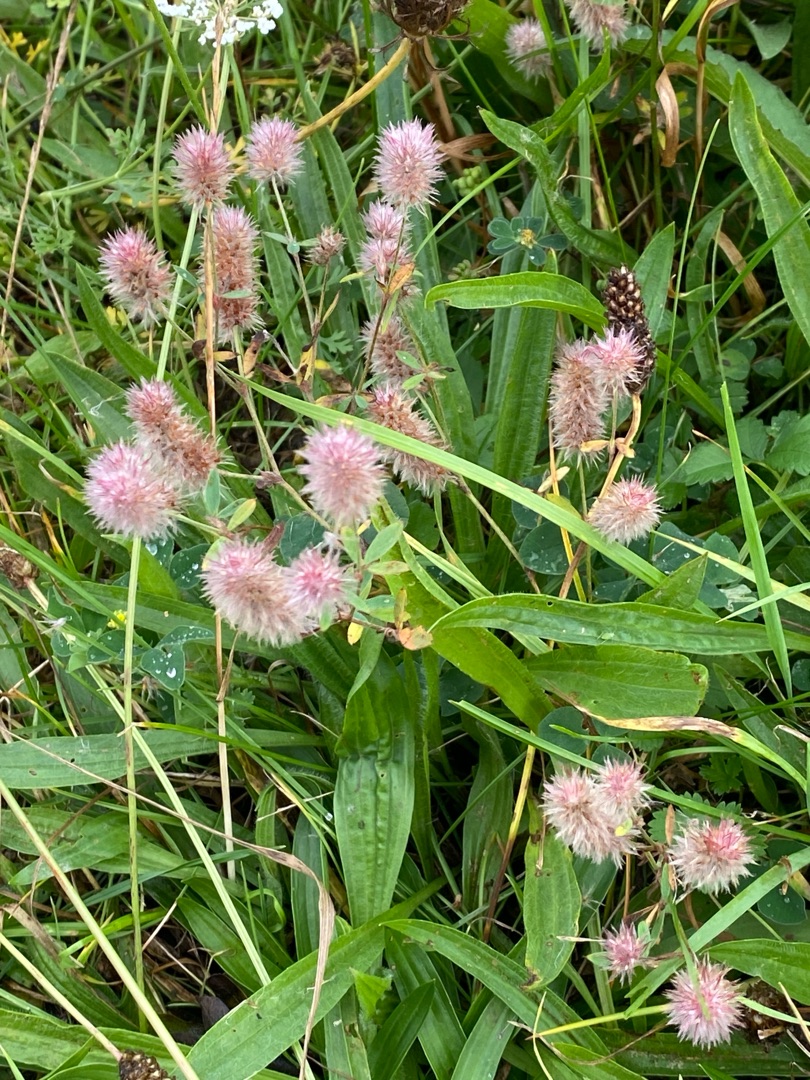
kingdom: Plantae
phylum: Tracheophyta
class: Magnoliopsida
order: Fabales
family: Fabaceae
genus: Trifolium
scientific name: Trifolium arvense
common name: Hare-kløver
